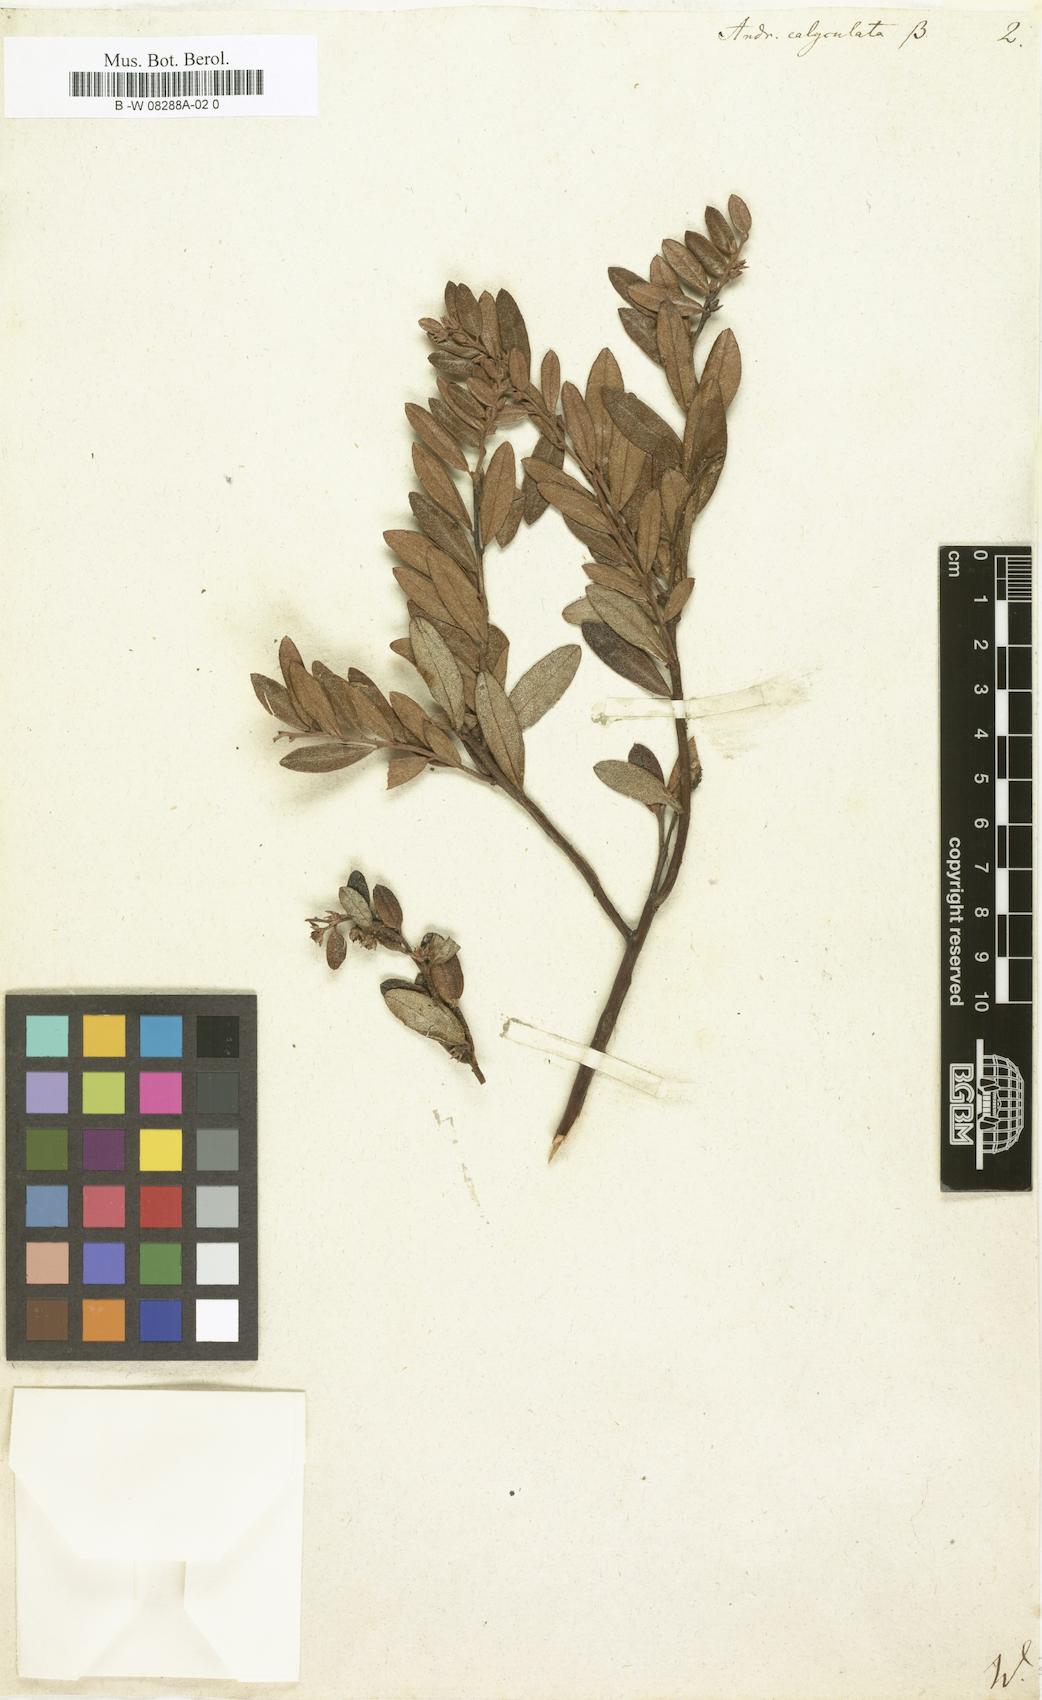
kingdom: Plantae
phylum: Tracheophyta
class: Magnoliopsida
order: Ericales
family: Ericaceae
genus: Chamaedaphne
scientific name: Chamaedaphne calyculata
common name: Leatherleaf
